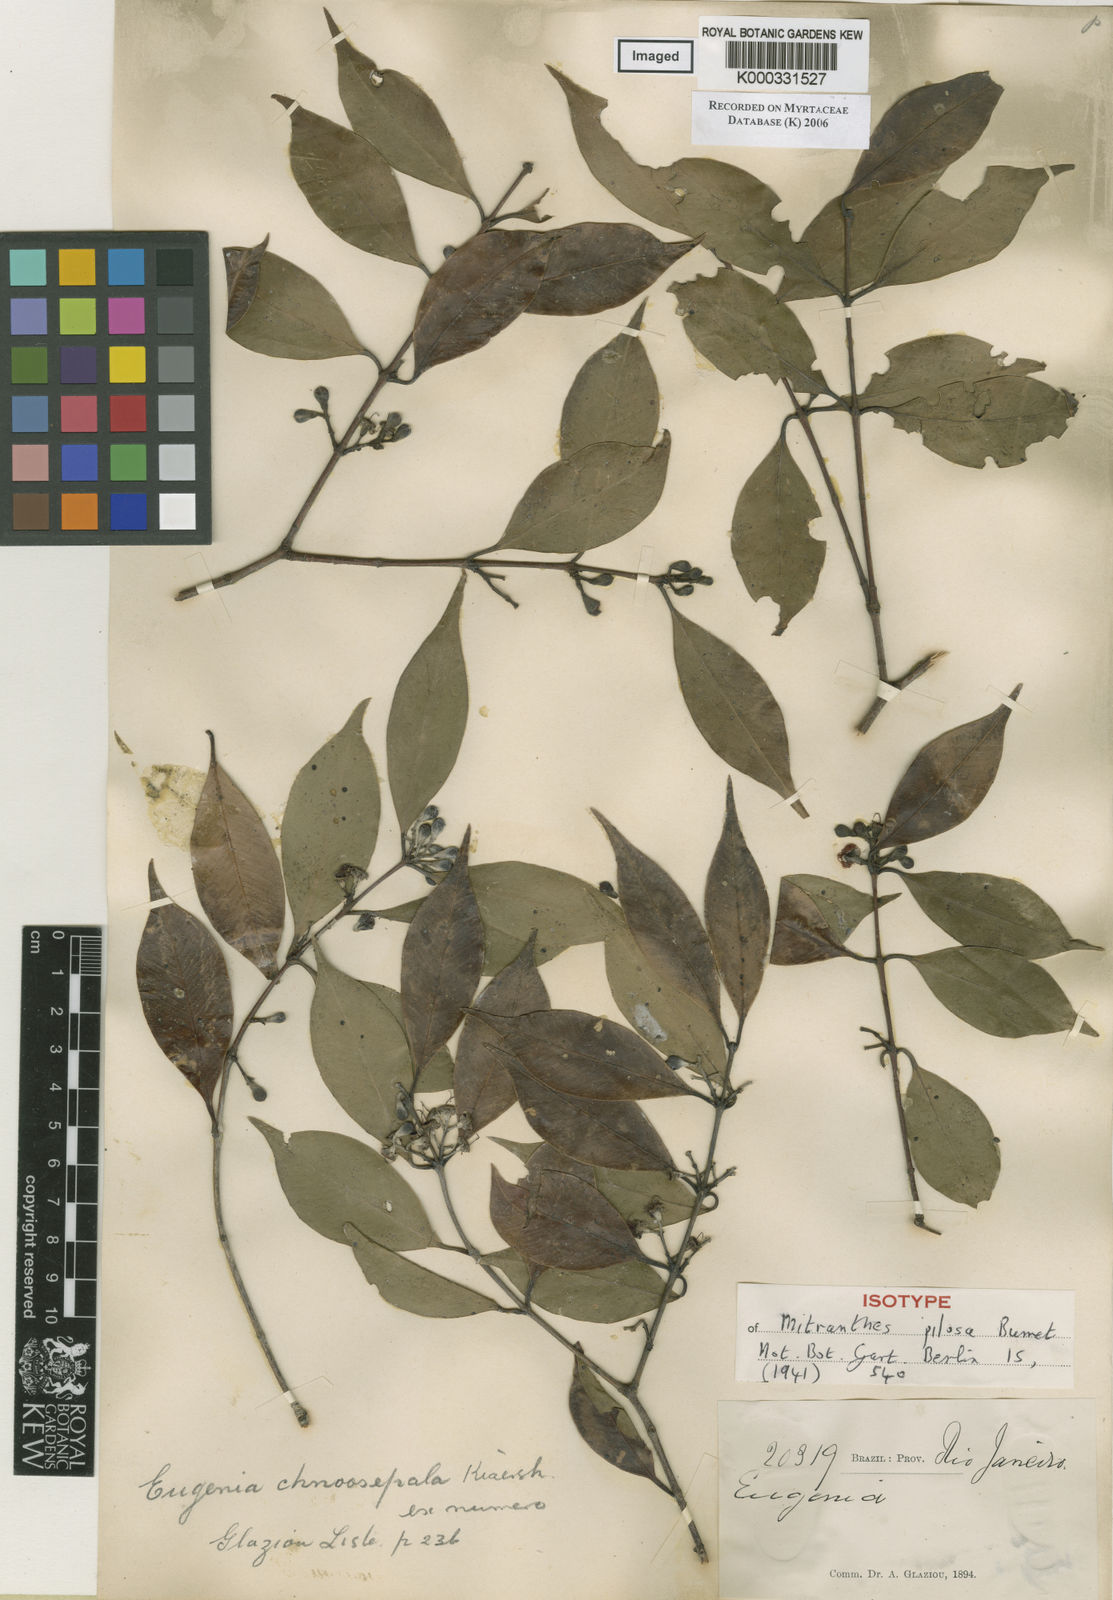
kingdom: Plantae
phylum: Tracheophyta
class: Magnoliopsida
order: Myrtales
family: Myrtaceae
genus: Siphoneugena
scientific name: Siphoneugena kiaerskoviana
